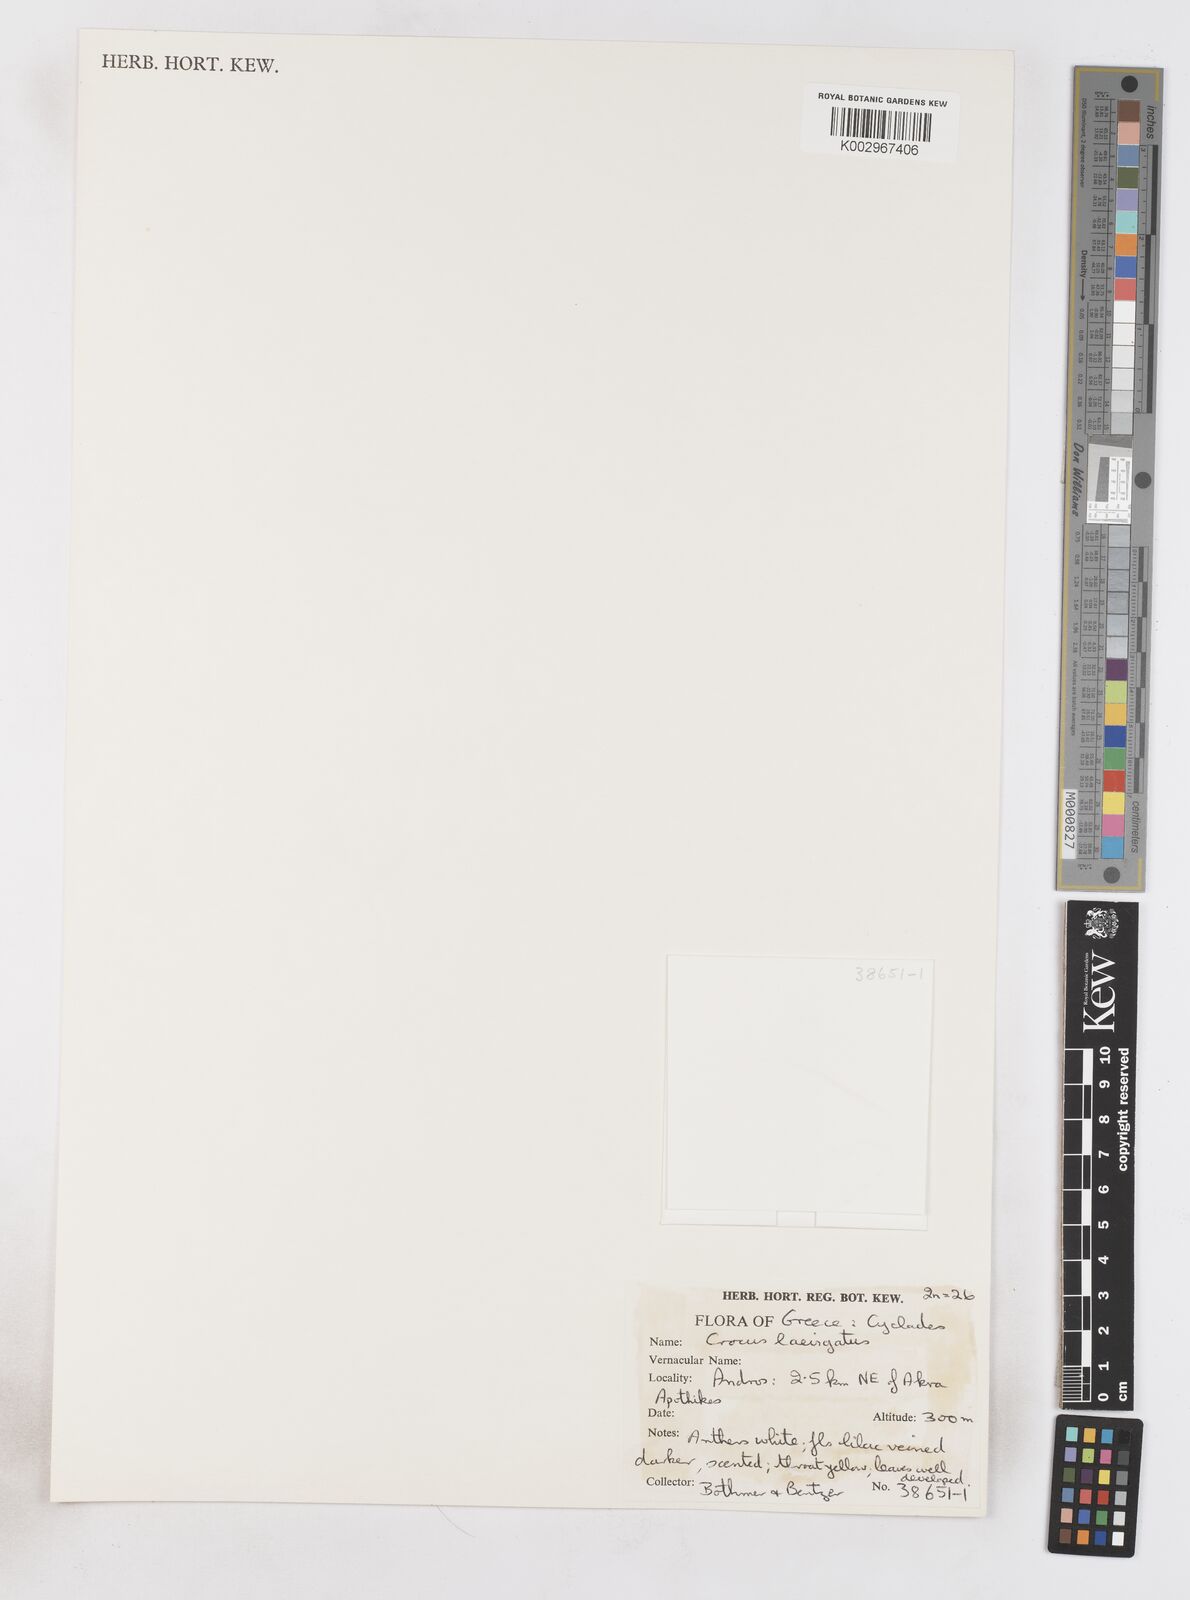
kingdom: Plantae
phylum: Tracheophyta
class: Liliopsida
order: Asparagales
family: Iridaceae
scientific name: Iridaceae
